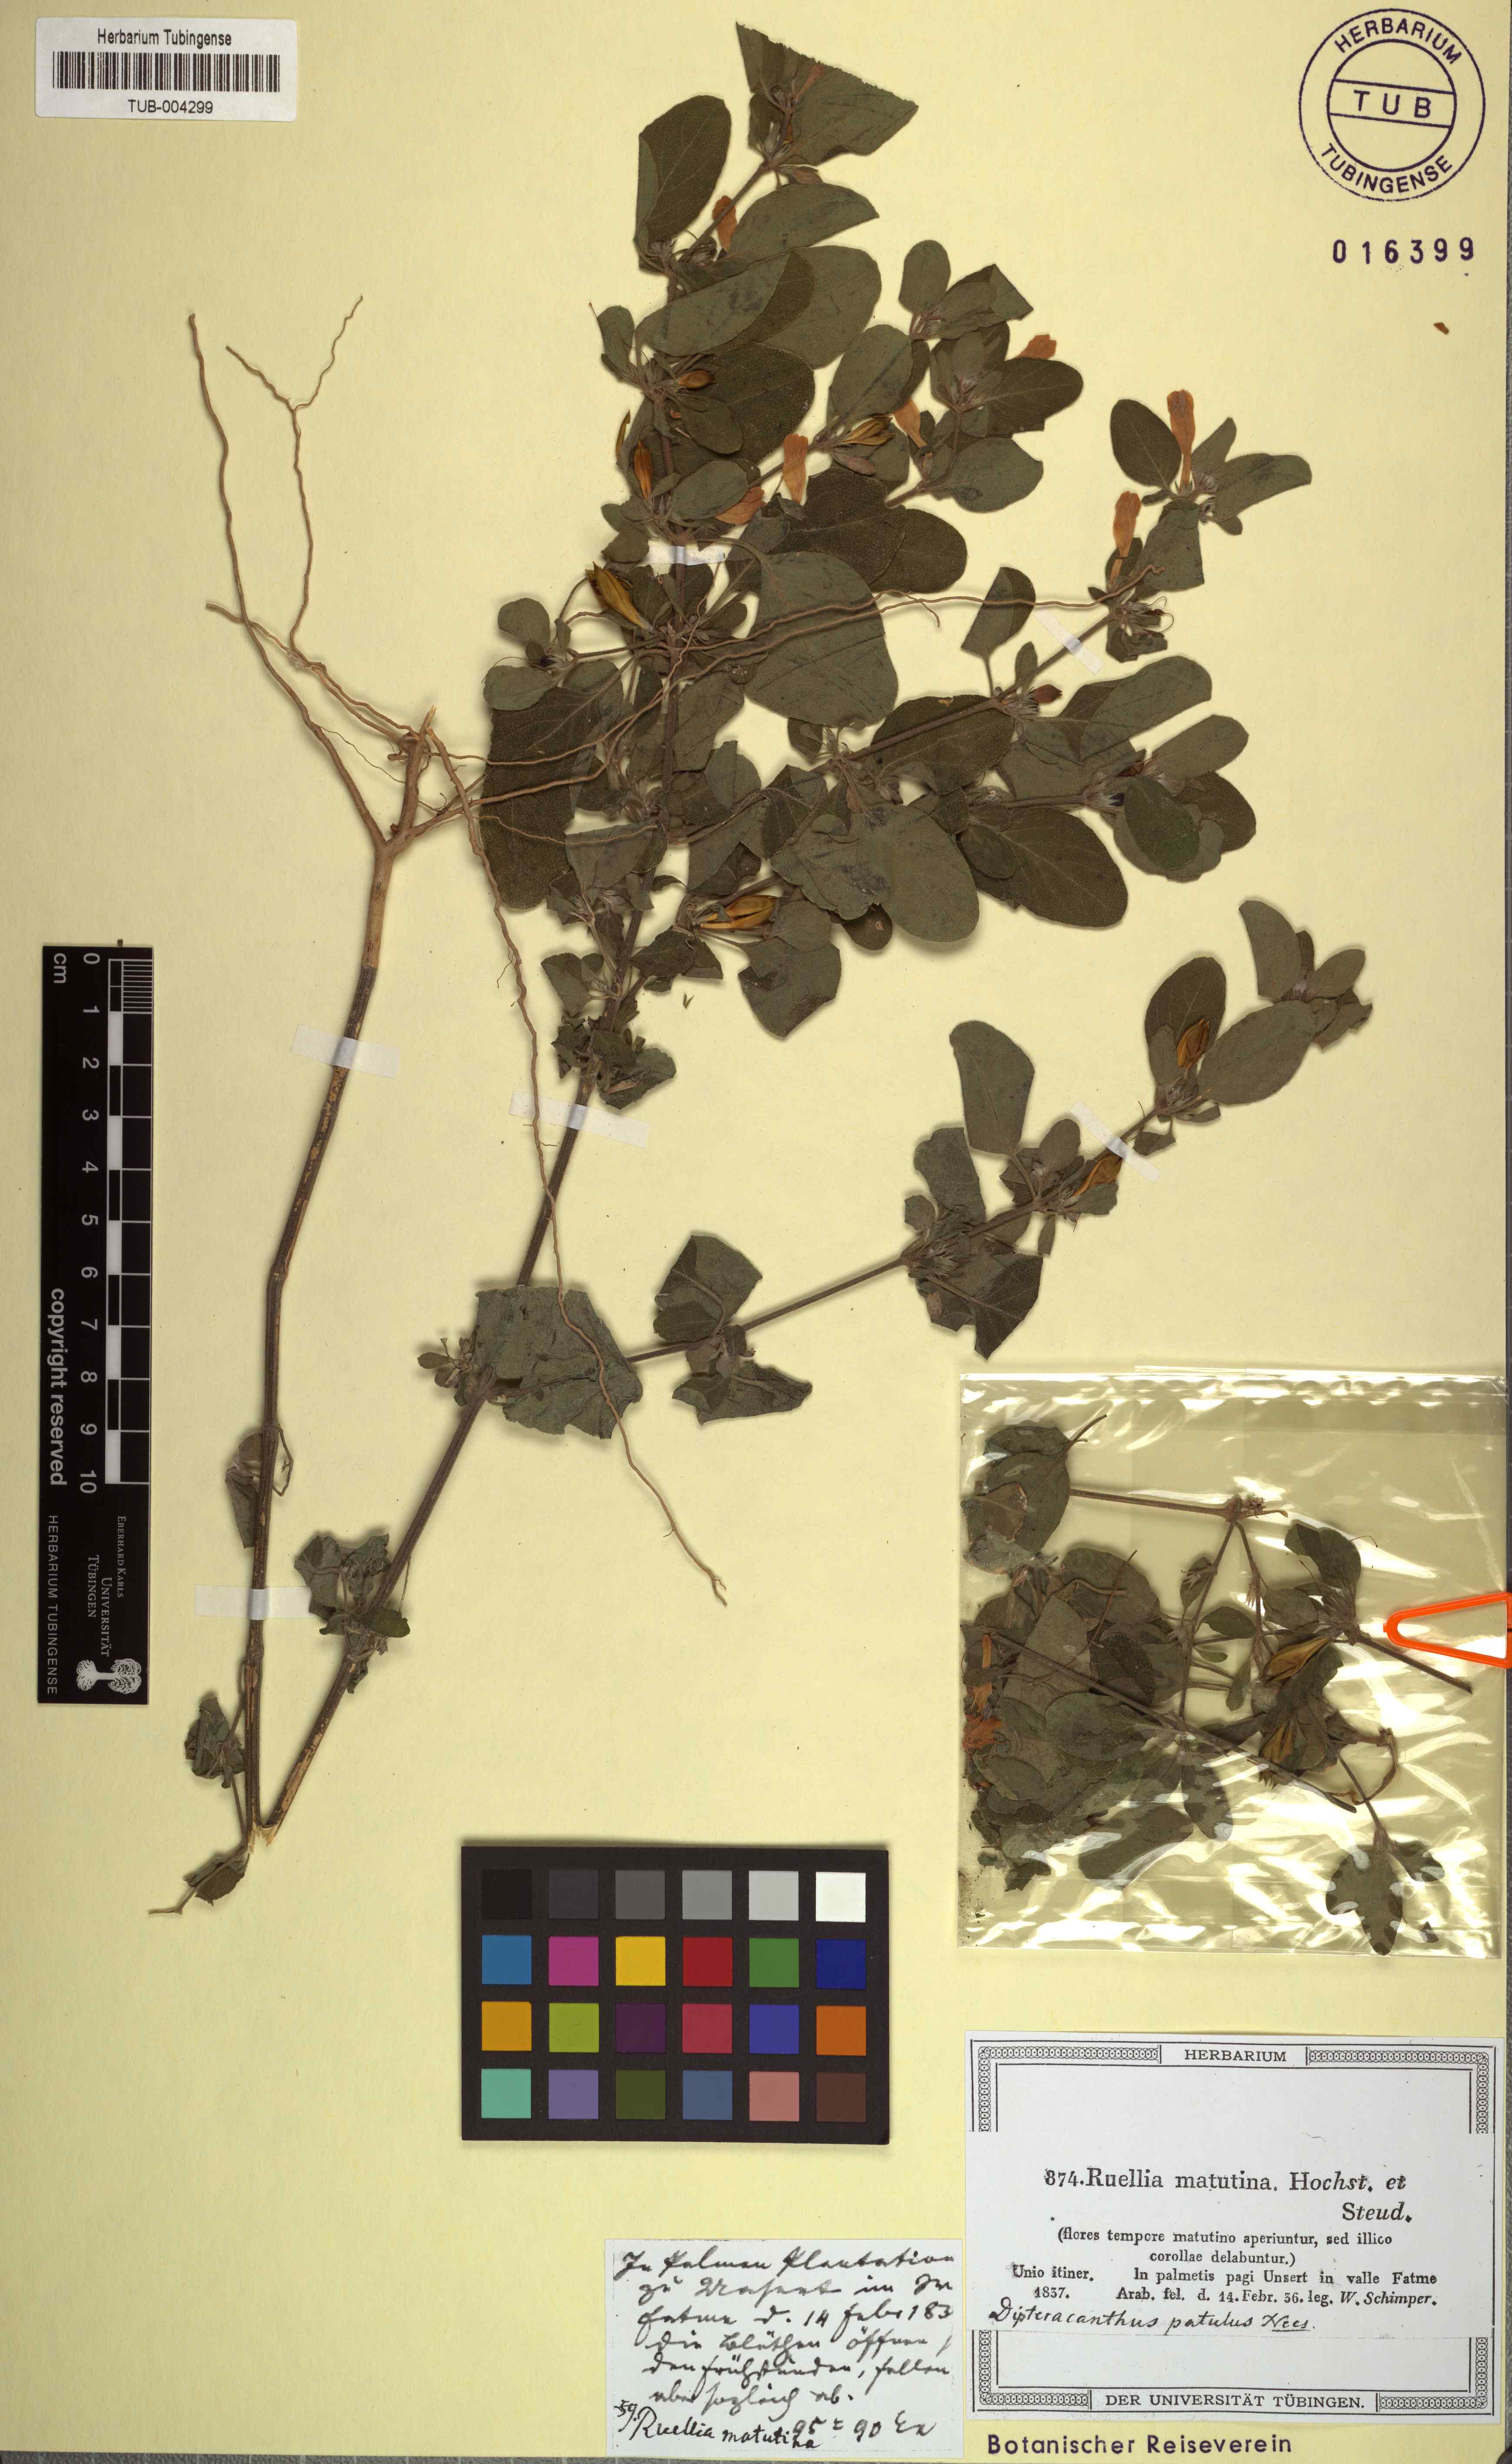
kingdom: Plantae
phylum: Tracheophyta
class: Magnoliopsida
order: Lamiales
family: Acanthaceae
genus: Ruellia
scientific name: Ruellia patula
